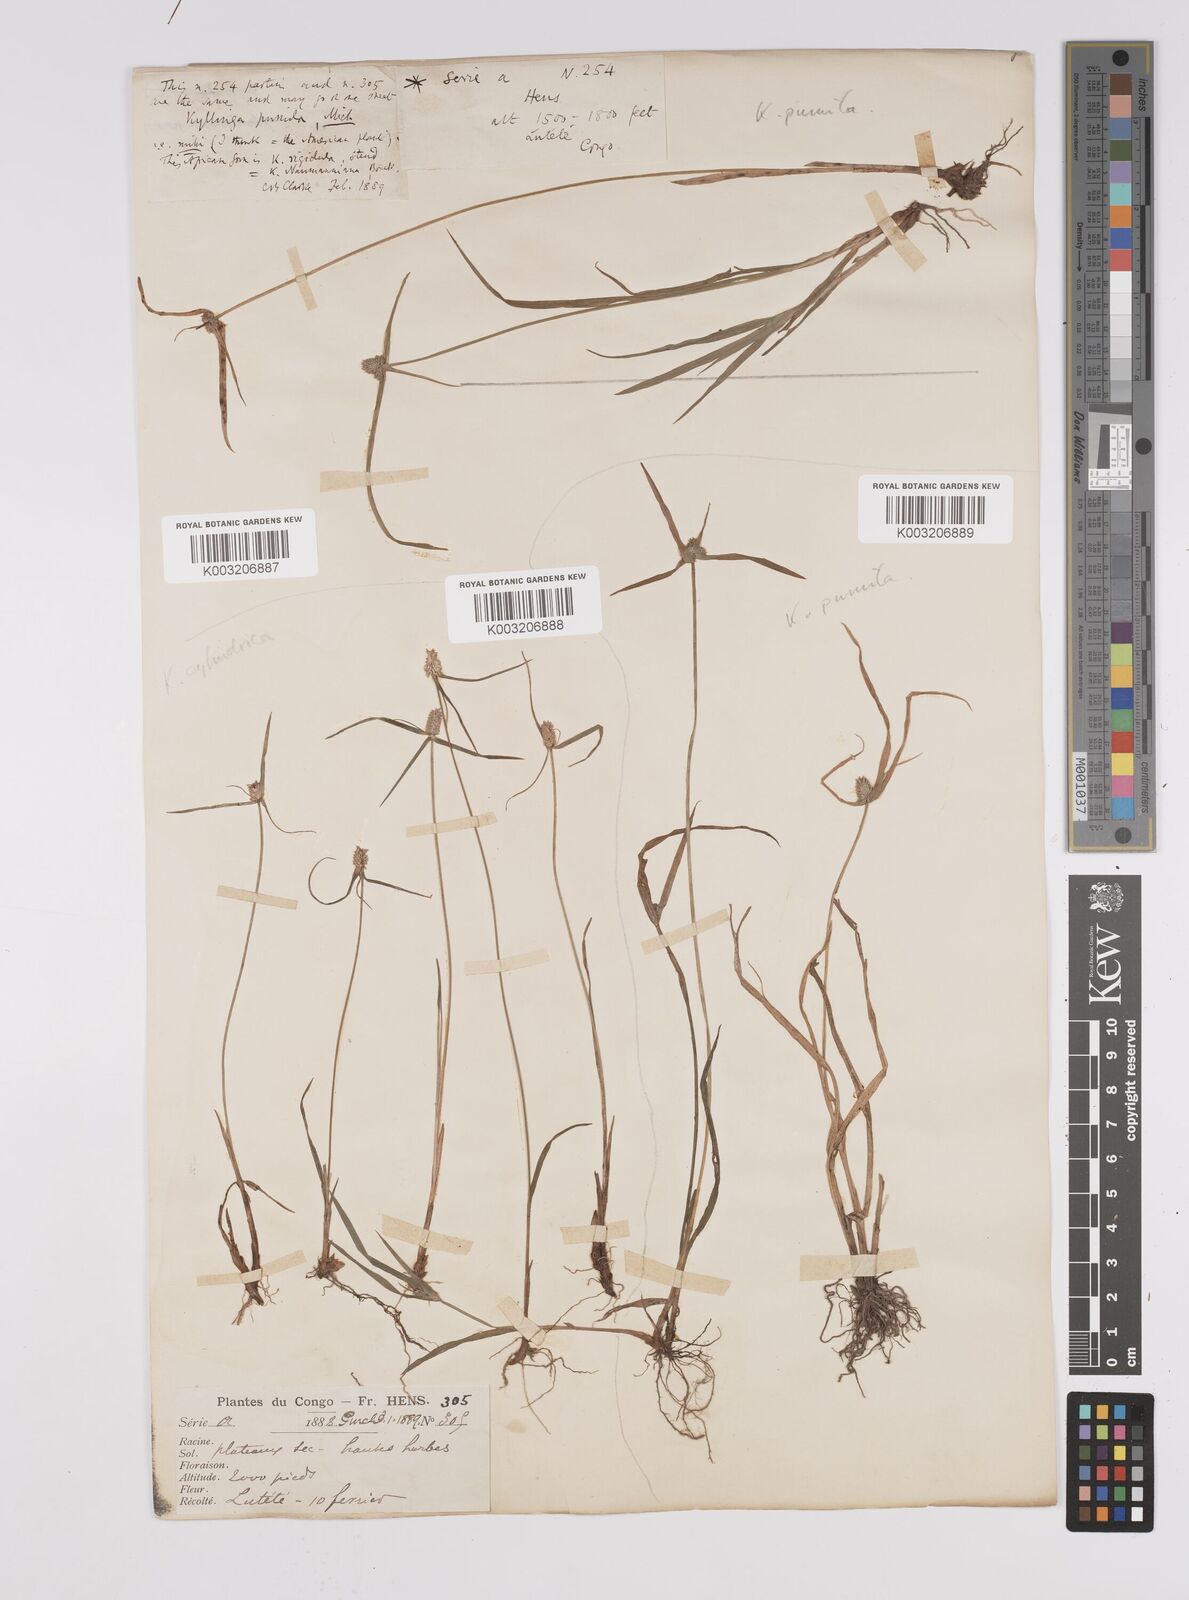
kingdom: Plantae
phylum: Tracheophyta
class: Liliopsida
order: Poales
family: Cyperaceae
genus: Cyperus
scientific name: Cyperus odoratus
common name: Fragrant flatsedge
